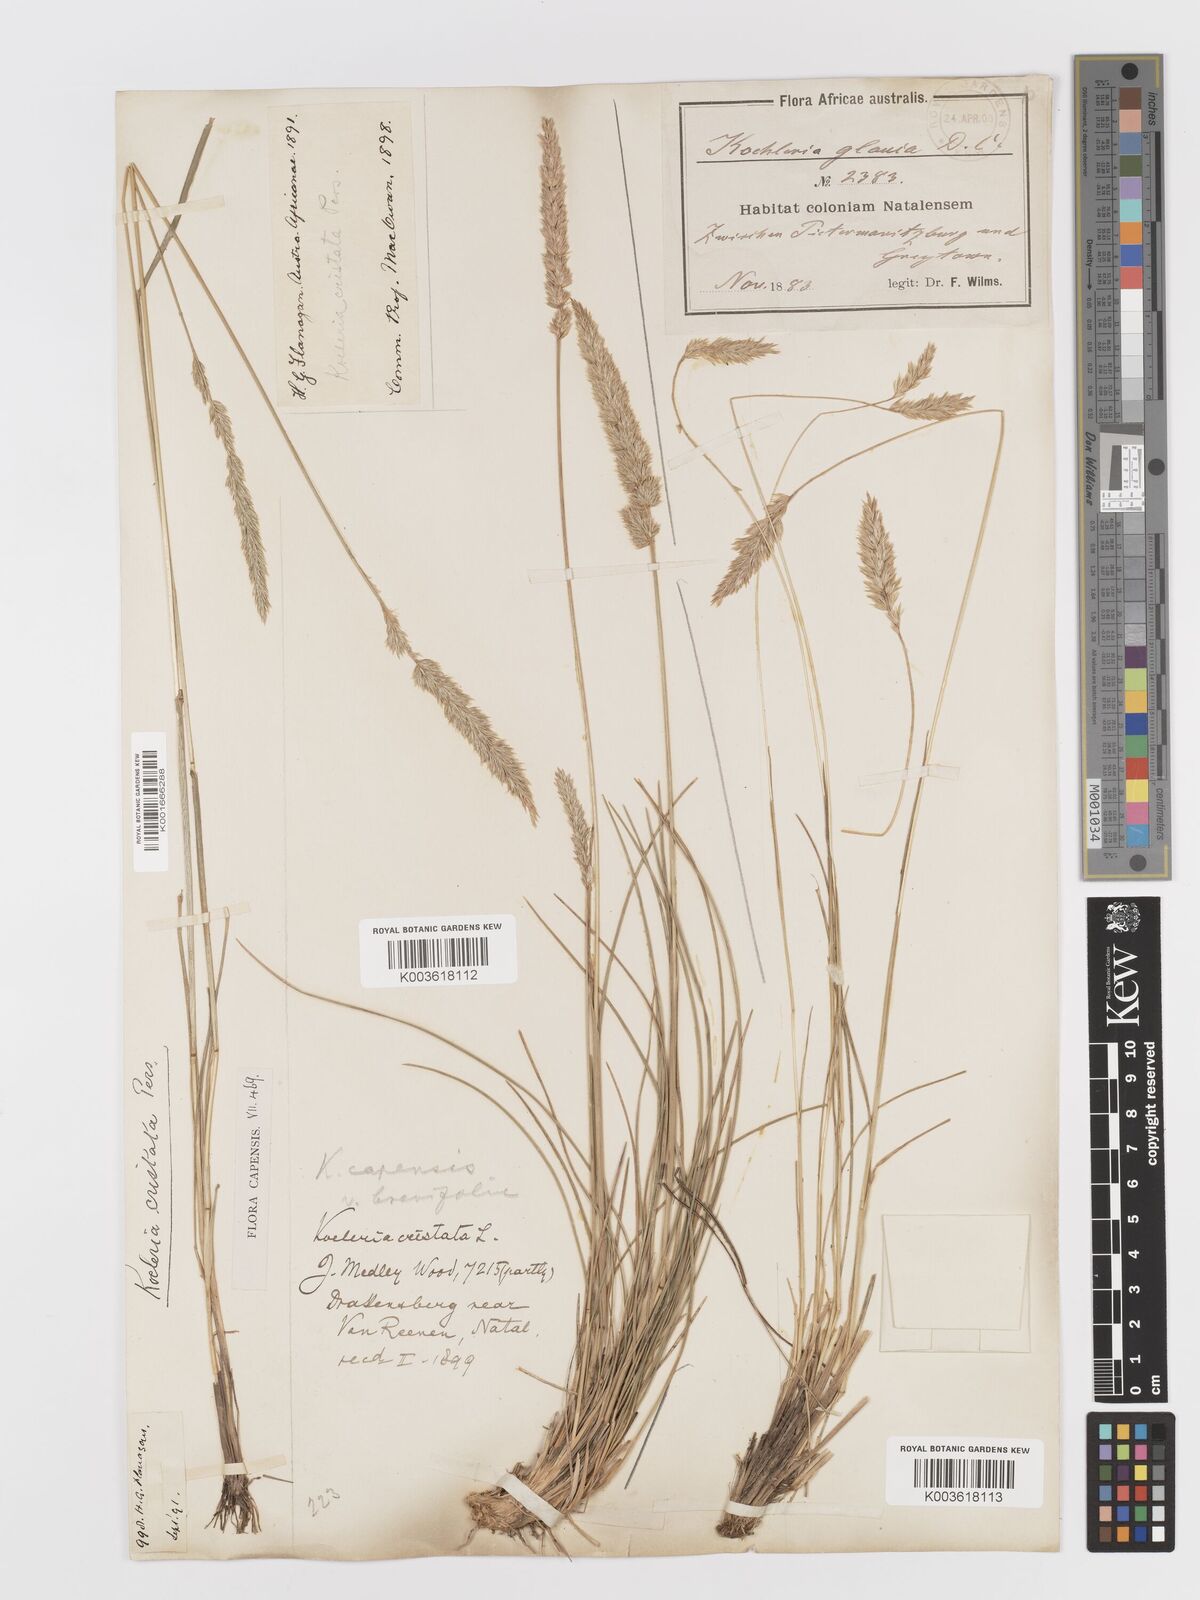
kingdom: Plantae
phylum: Tracheophyta
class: Liliopsida
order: Poales
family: Poaceae
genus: Koeleria
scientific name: Koeleria capensis
